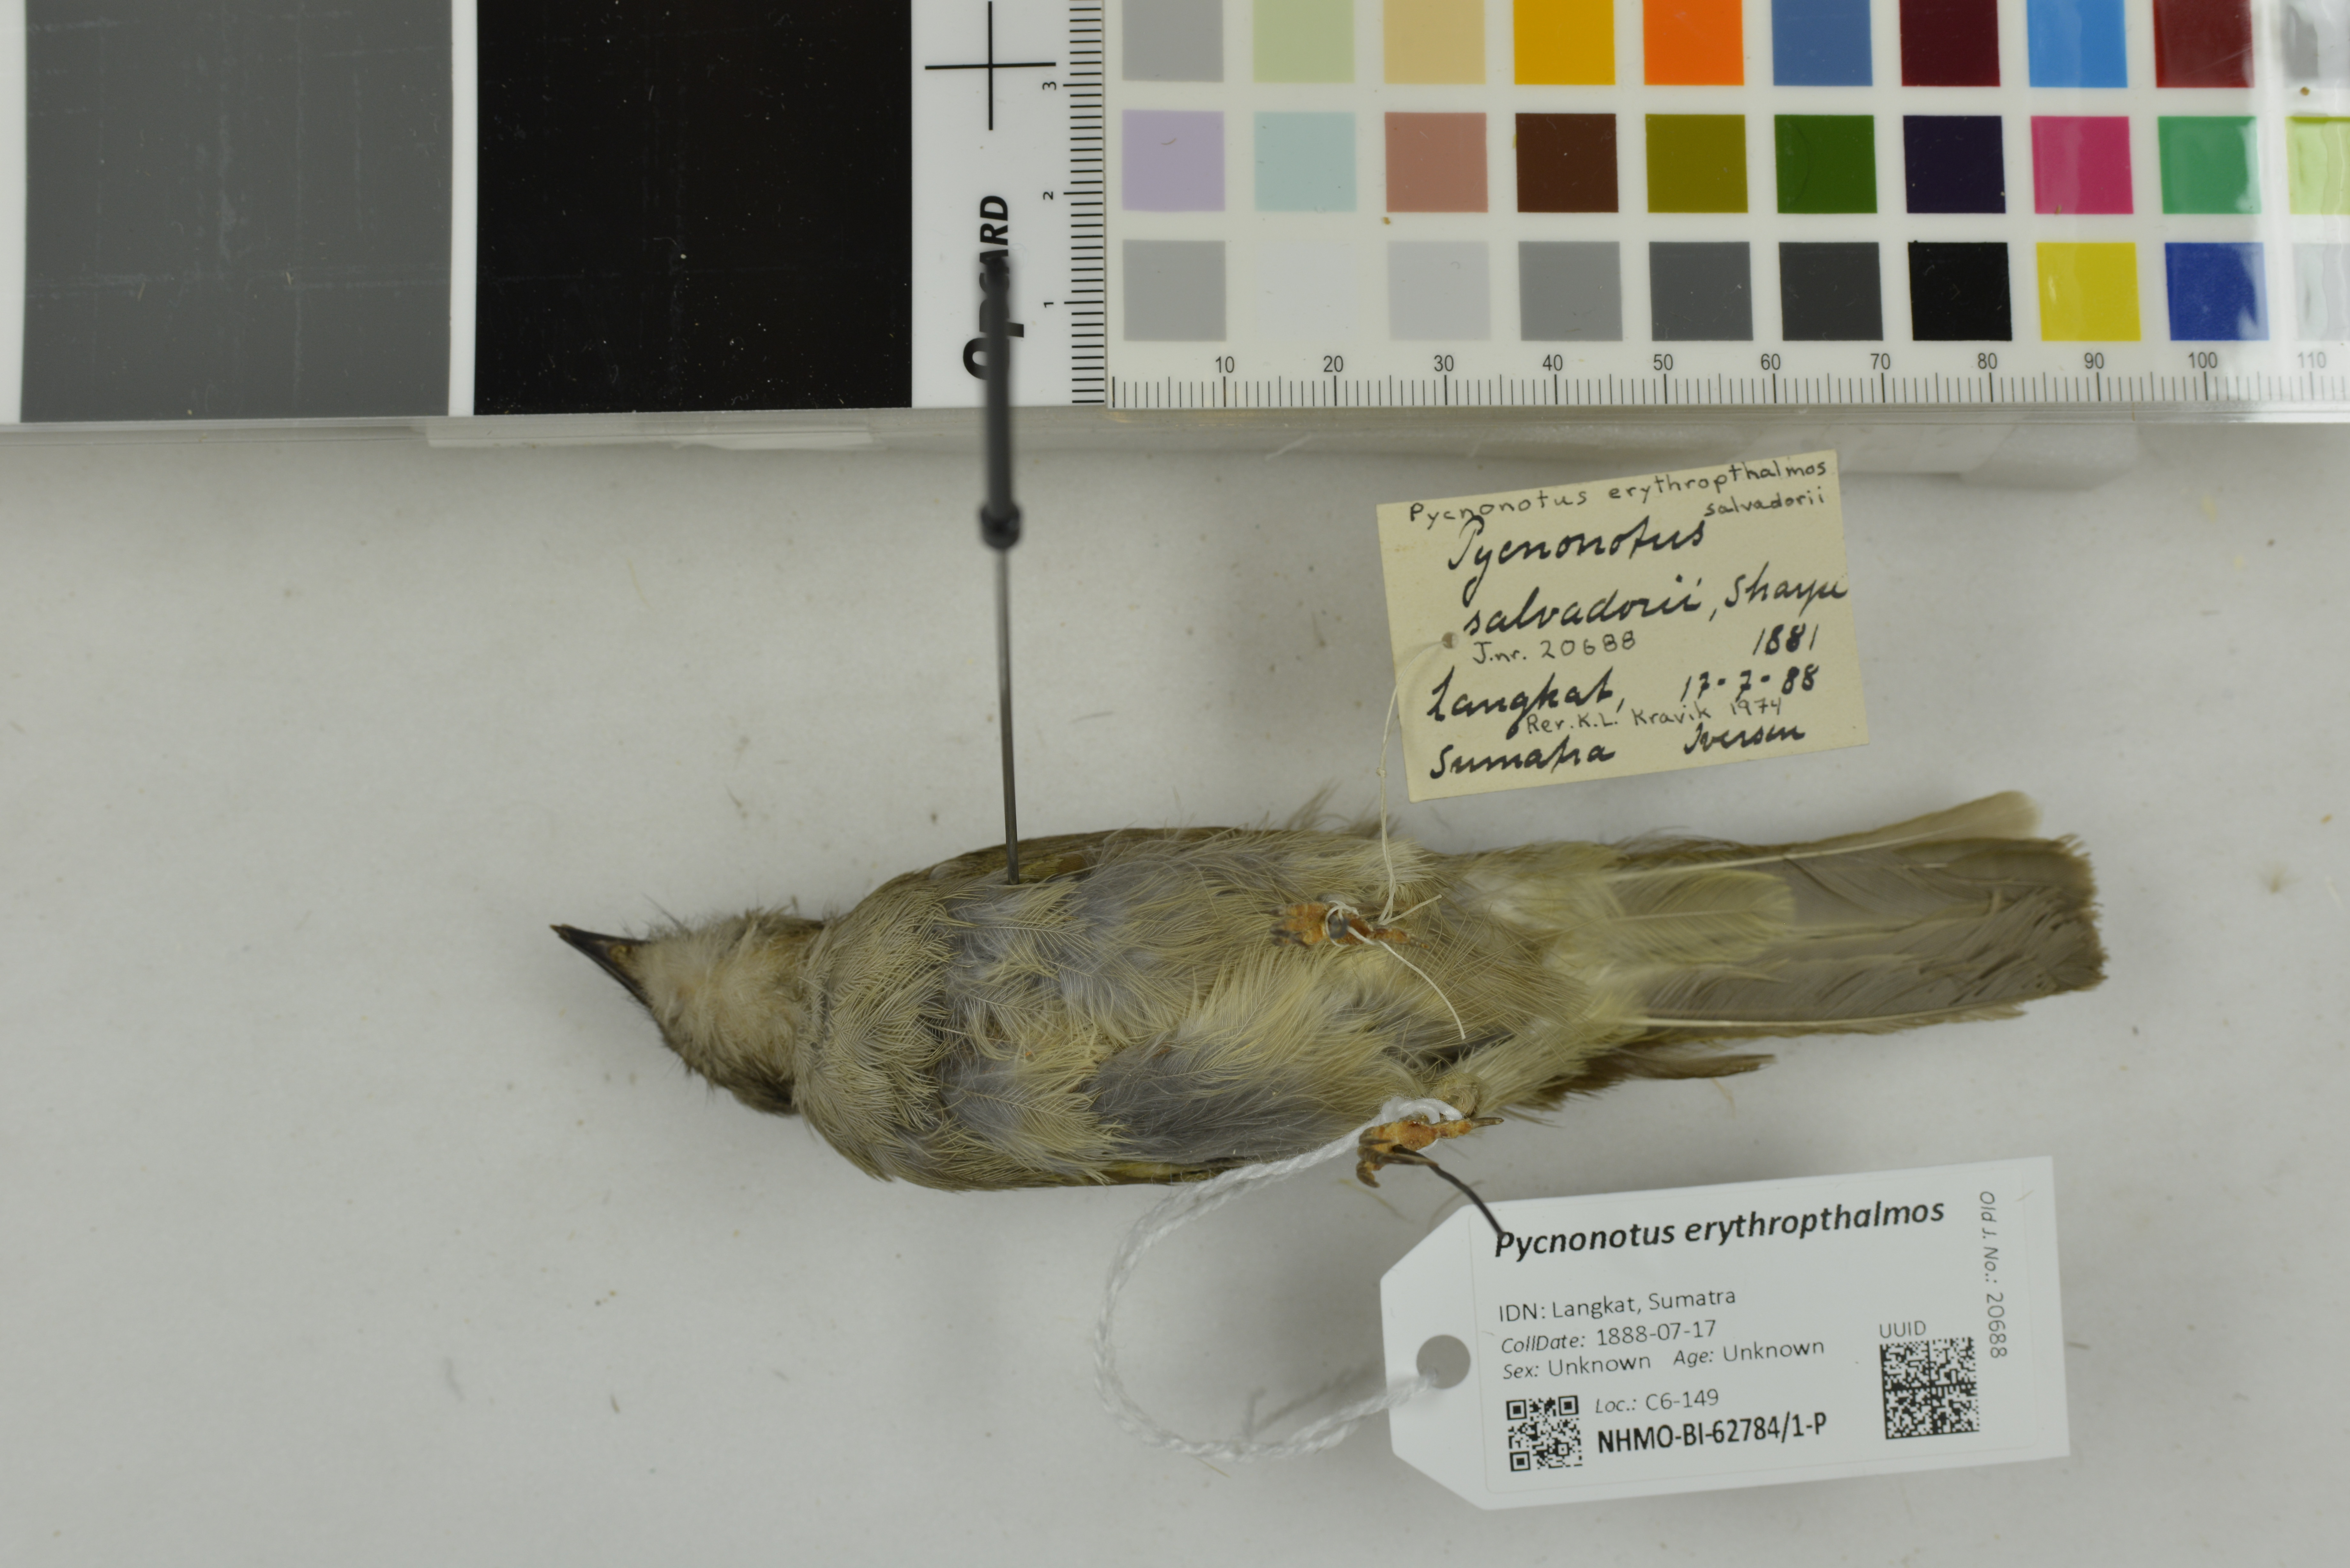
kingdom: Animalia
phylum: Chordata
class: Aves
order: Passeriformes
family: Pycnonotidae
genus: Pycnonotus
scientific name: Pycnonotus erythropthalmos
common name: Spectacled bulbul
